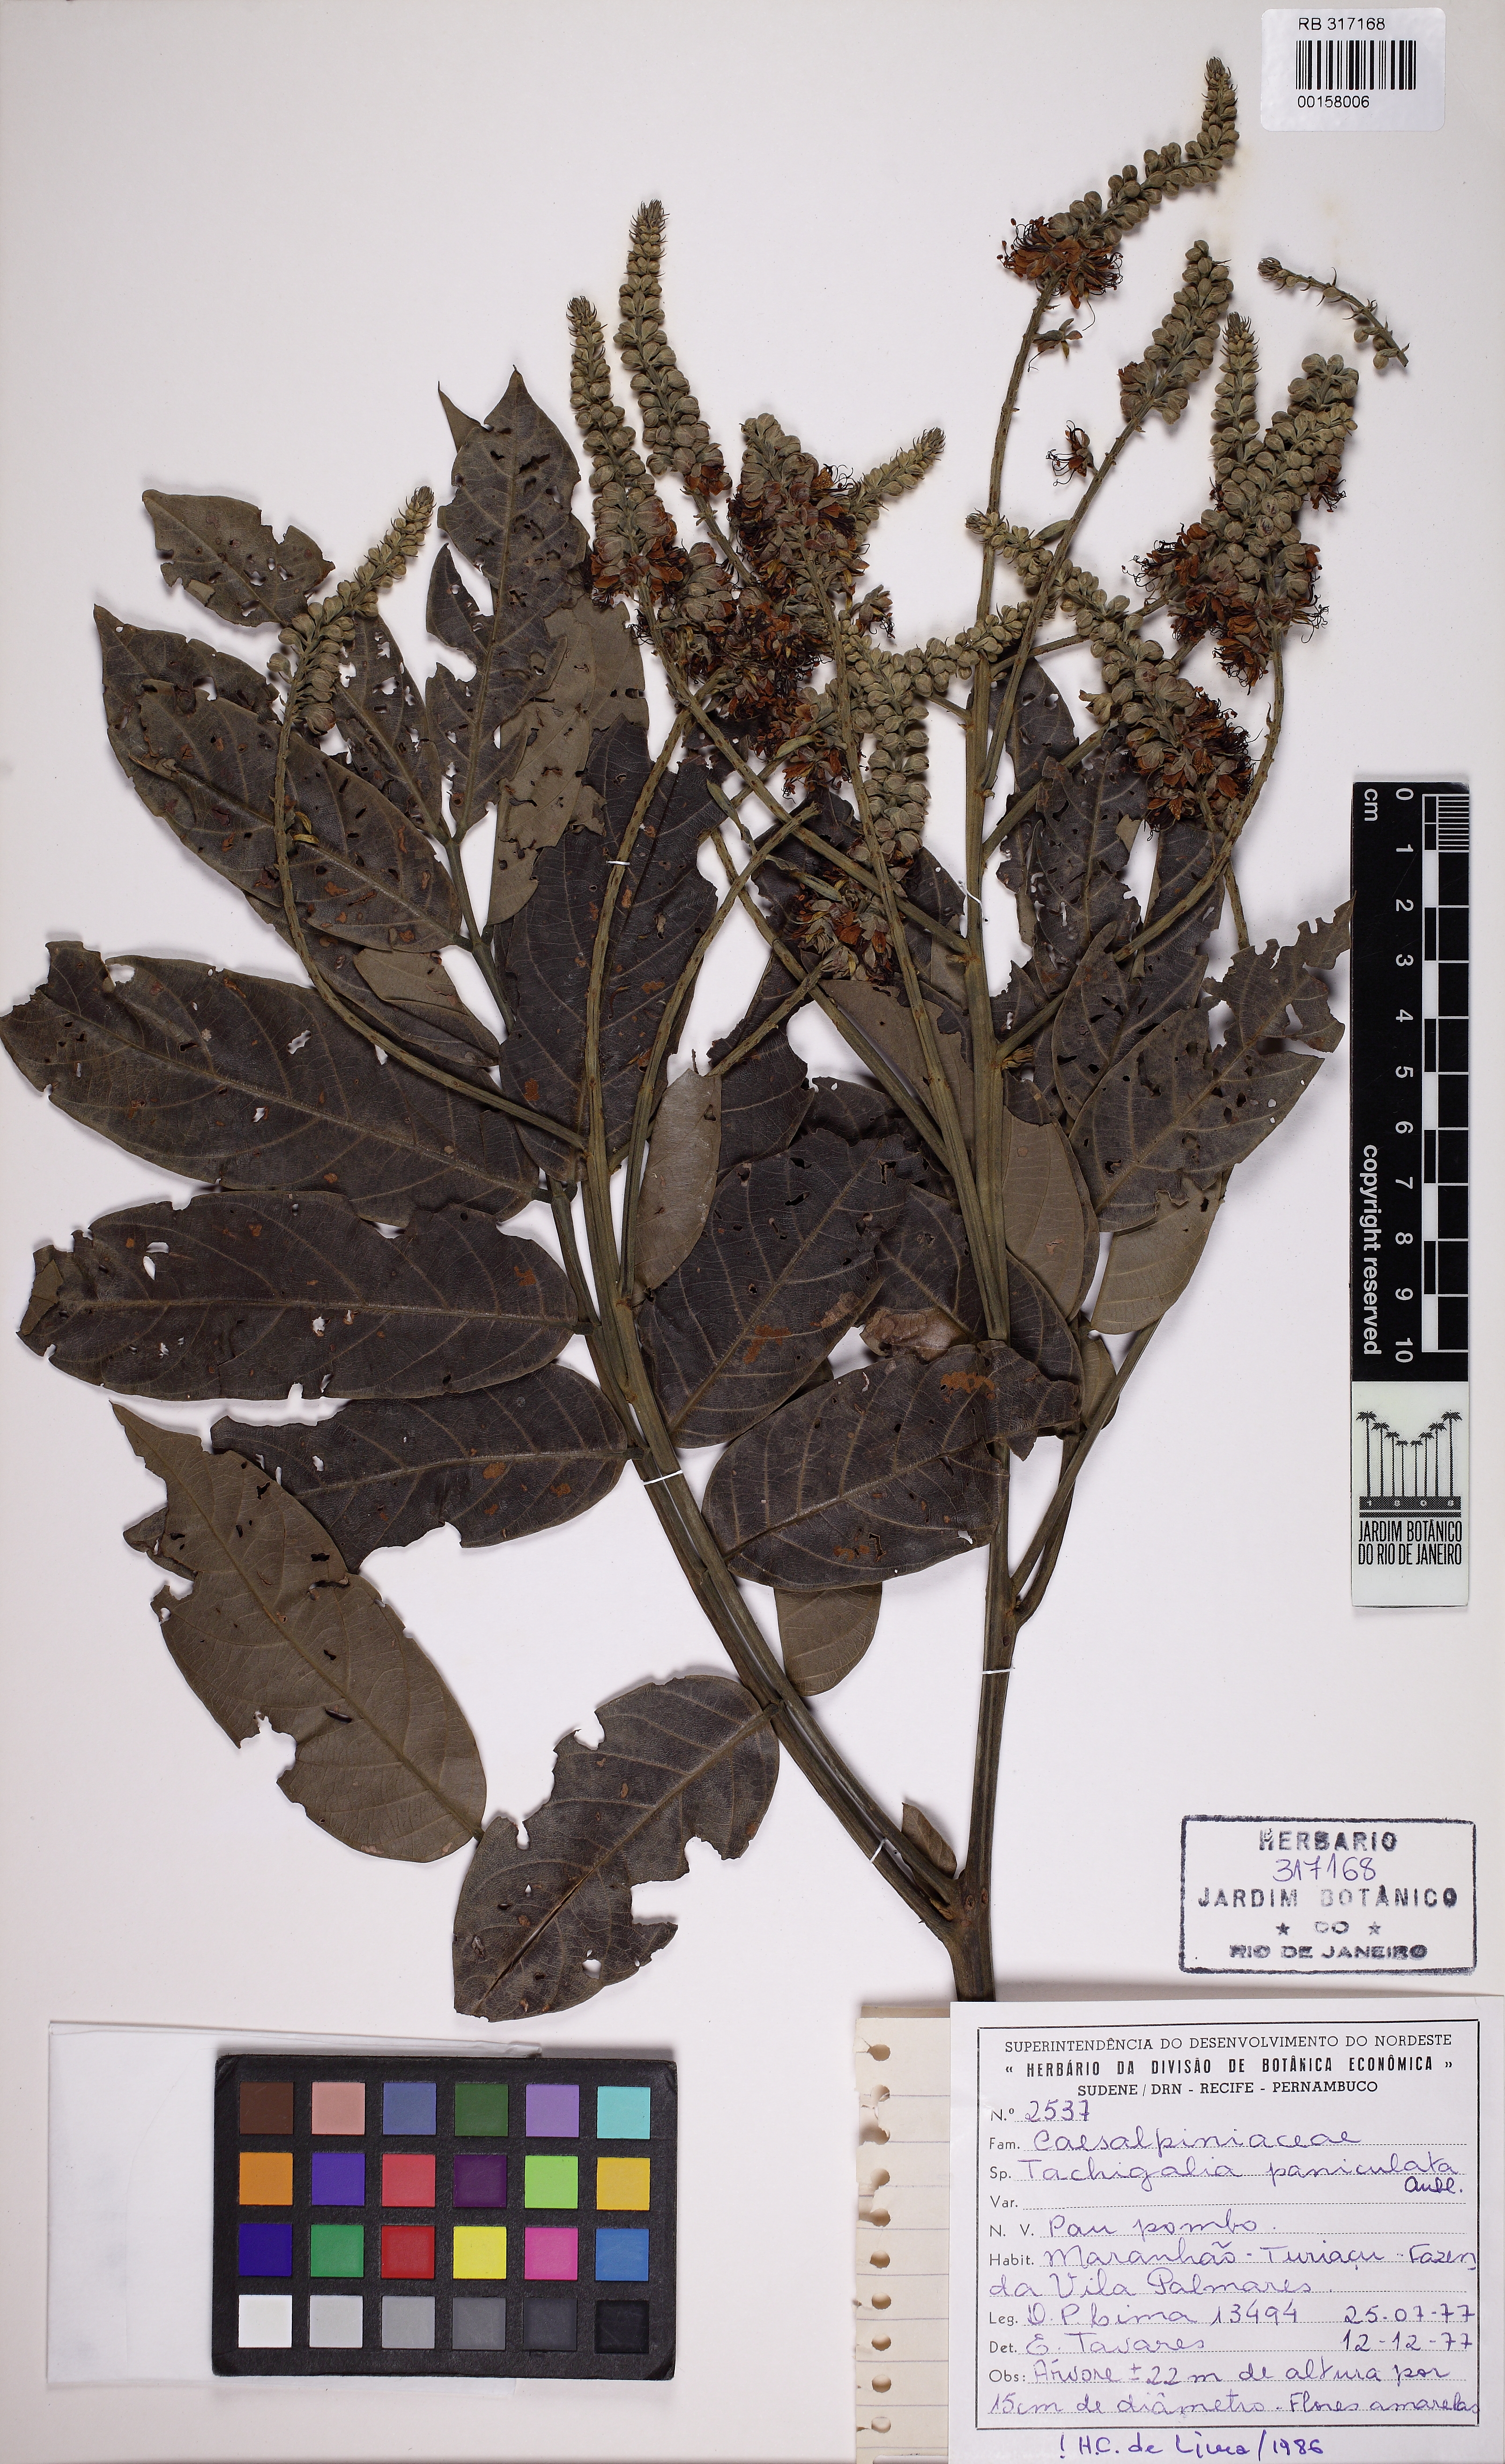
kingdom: Plantae
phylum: Tracheophyta
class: Magnoliopsida
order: Fabales
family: Fabaceae
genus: Tachigali
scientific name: Tachigali paniculata
